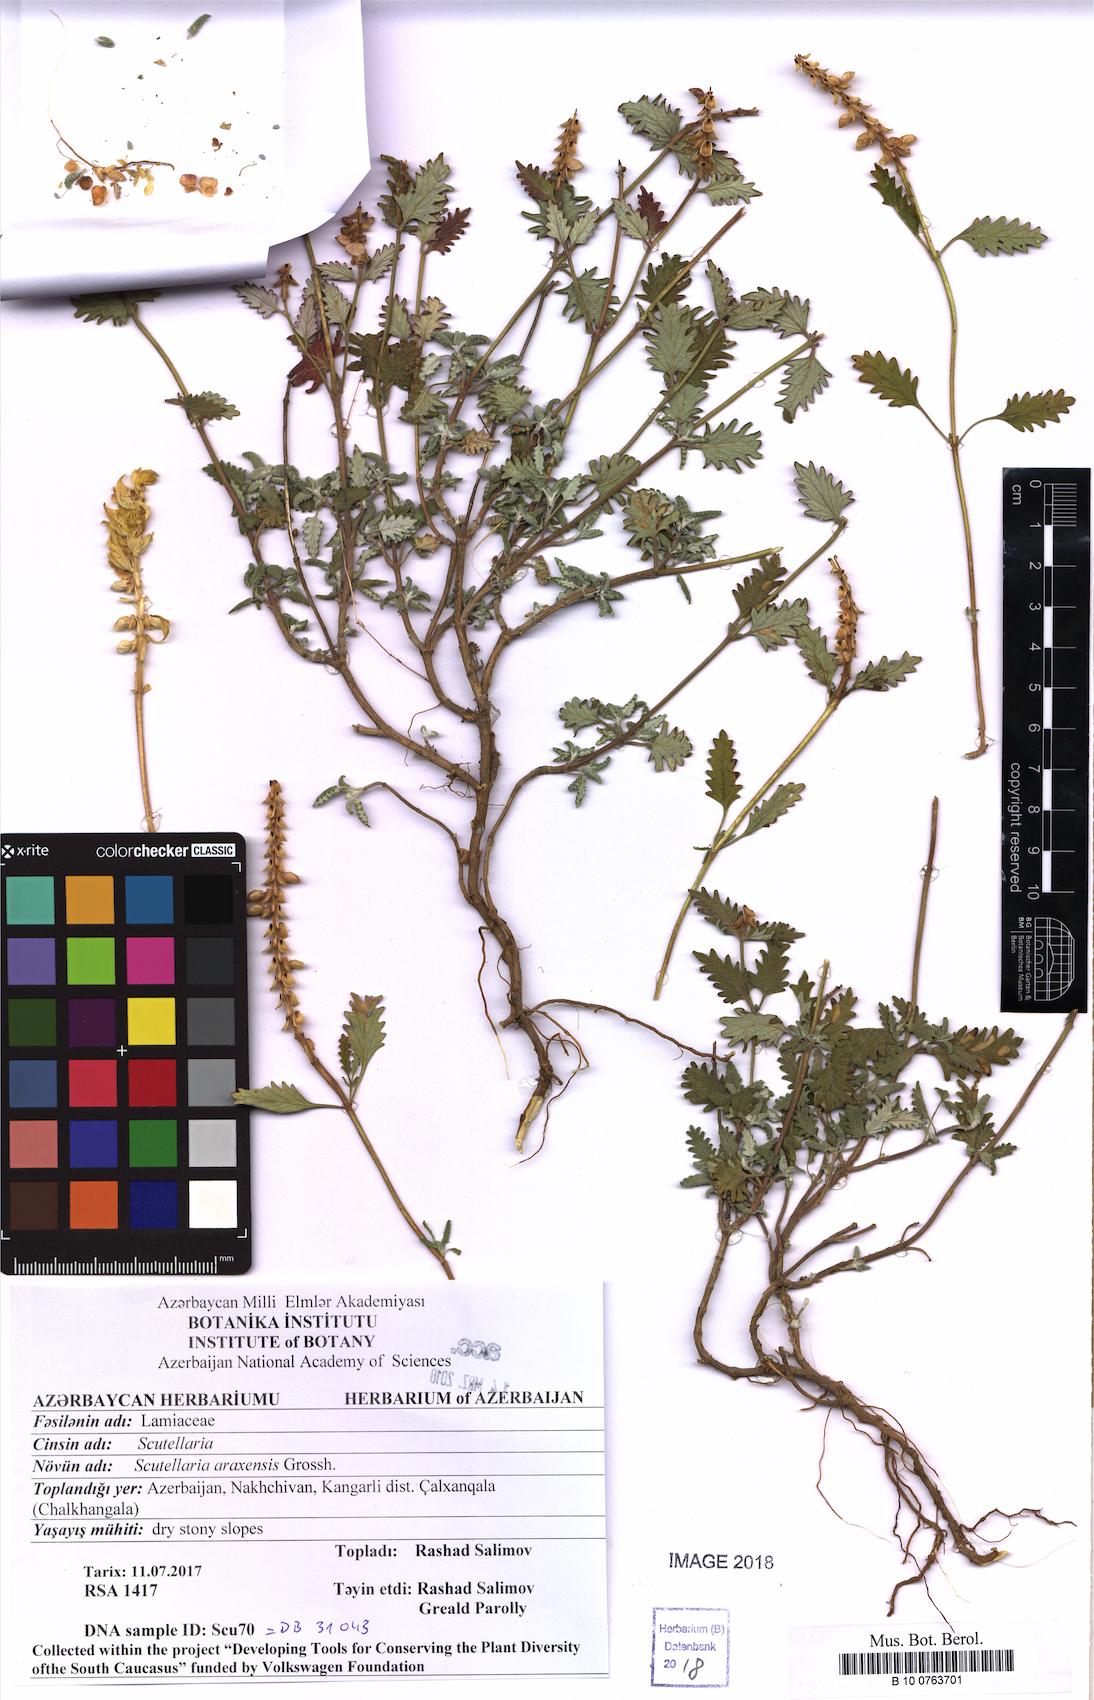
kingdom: Plantae
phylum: Tracheophyta
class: Magnoliopsida
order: Lamiales
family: Lamiaceae
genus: Scutellaria
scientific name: Scutellaria araxensis
